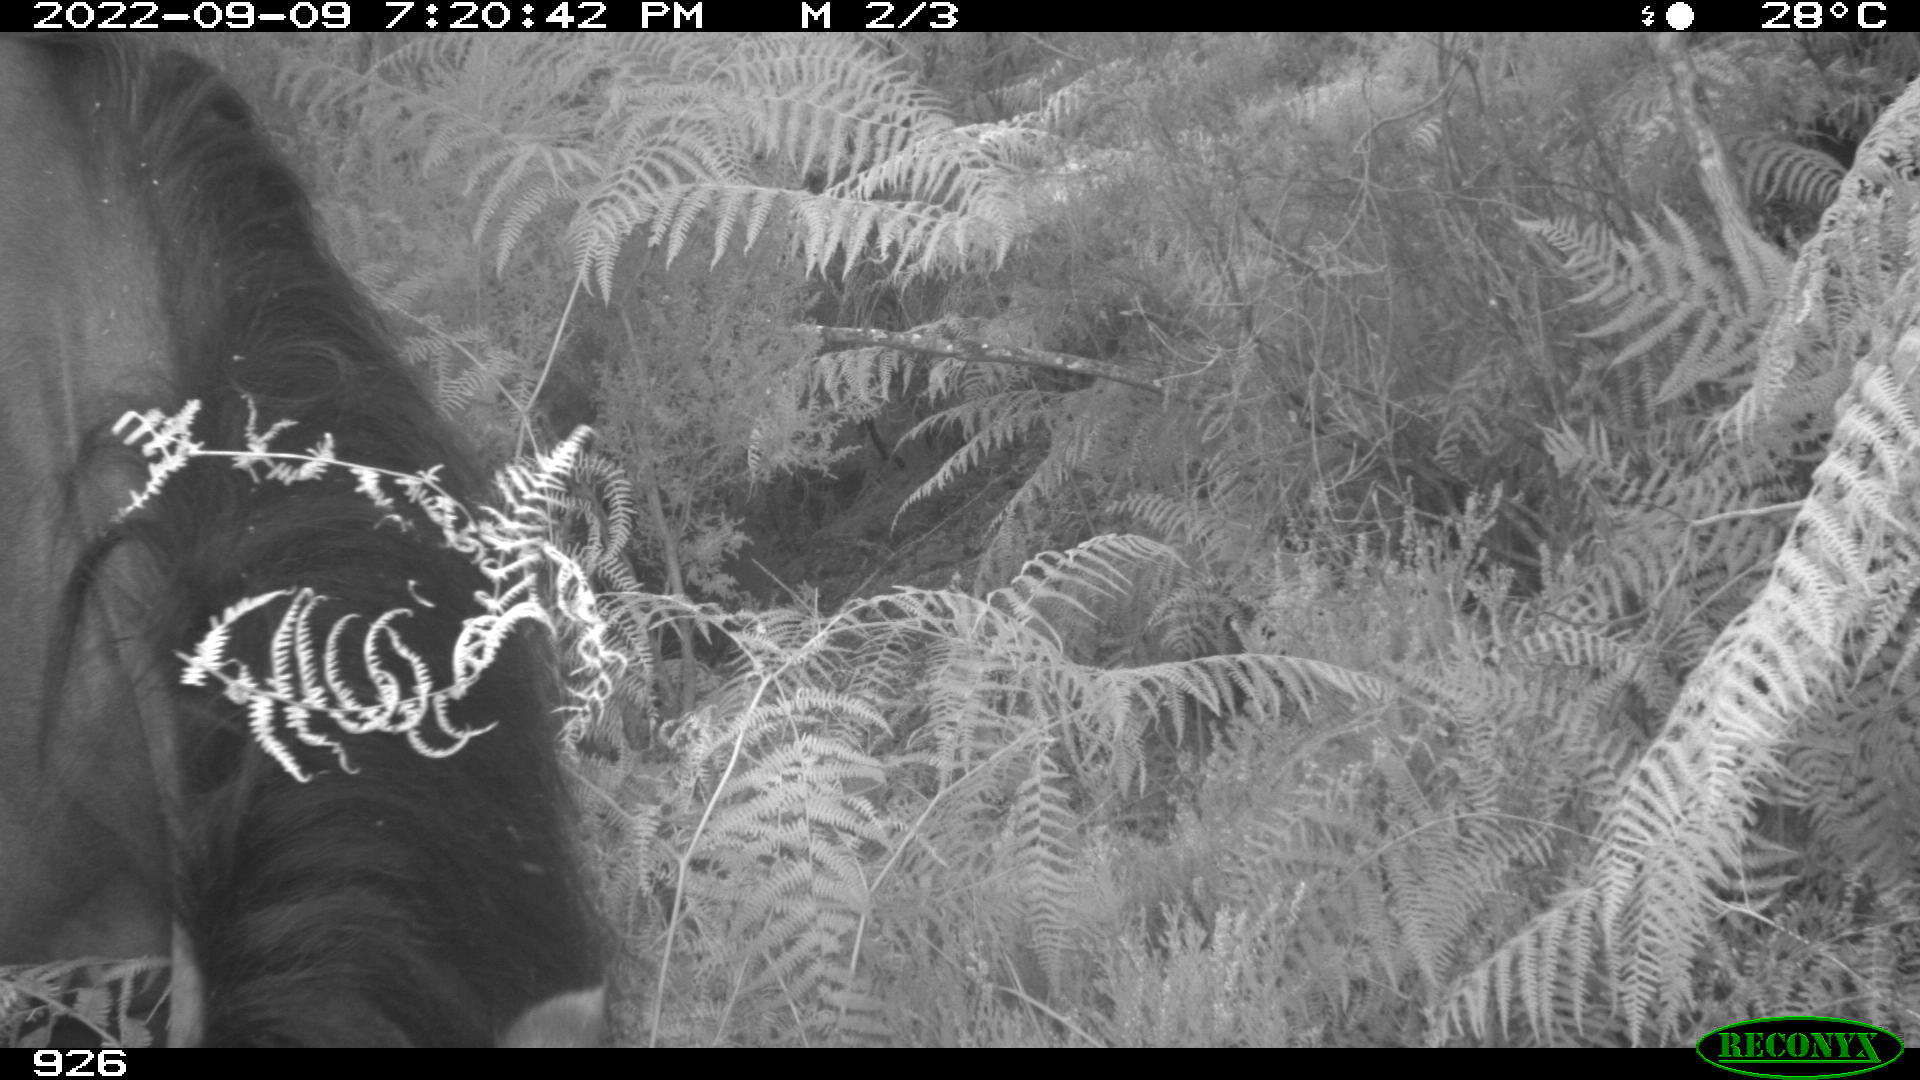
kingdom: Animalia
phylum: Chordata
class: Mammalia
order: Perissodactyla
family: Equidae
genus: Equus
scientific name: Equus caballus
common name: Horse
